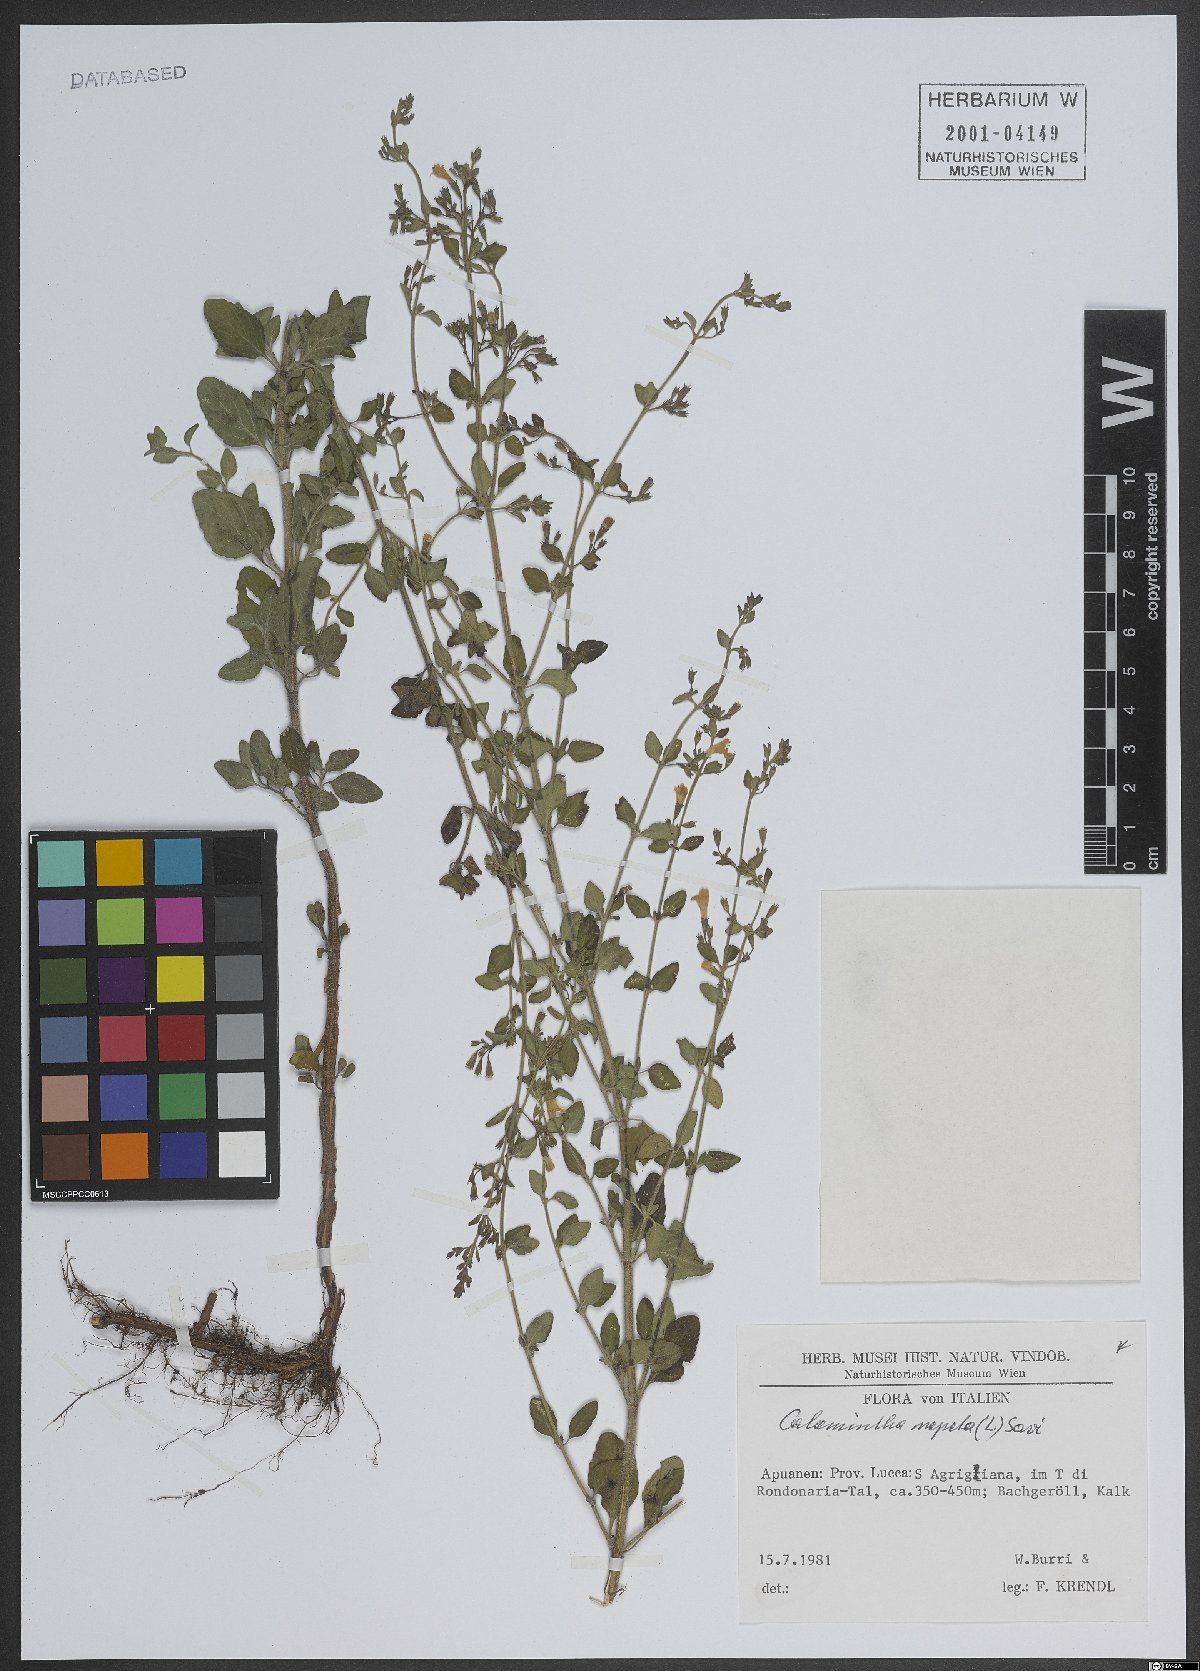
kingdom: Plantae
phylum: Tracheophyta
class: Magnoliopsida
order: Lamiales
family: Lamiaceae
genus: Clinopodium
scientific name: Clinopodium nepeta
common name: Lesser calamint
